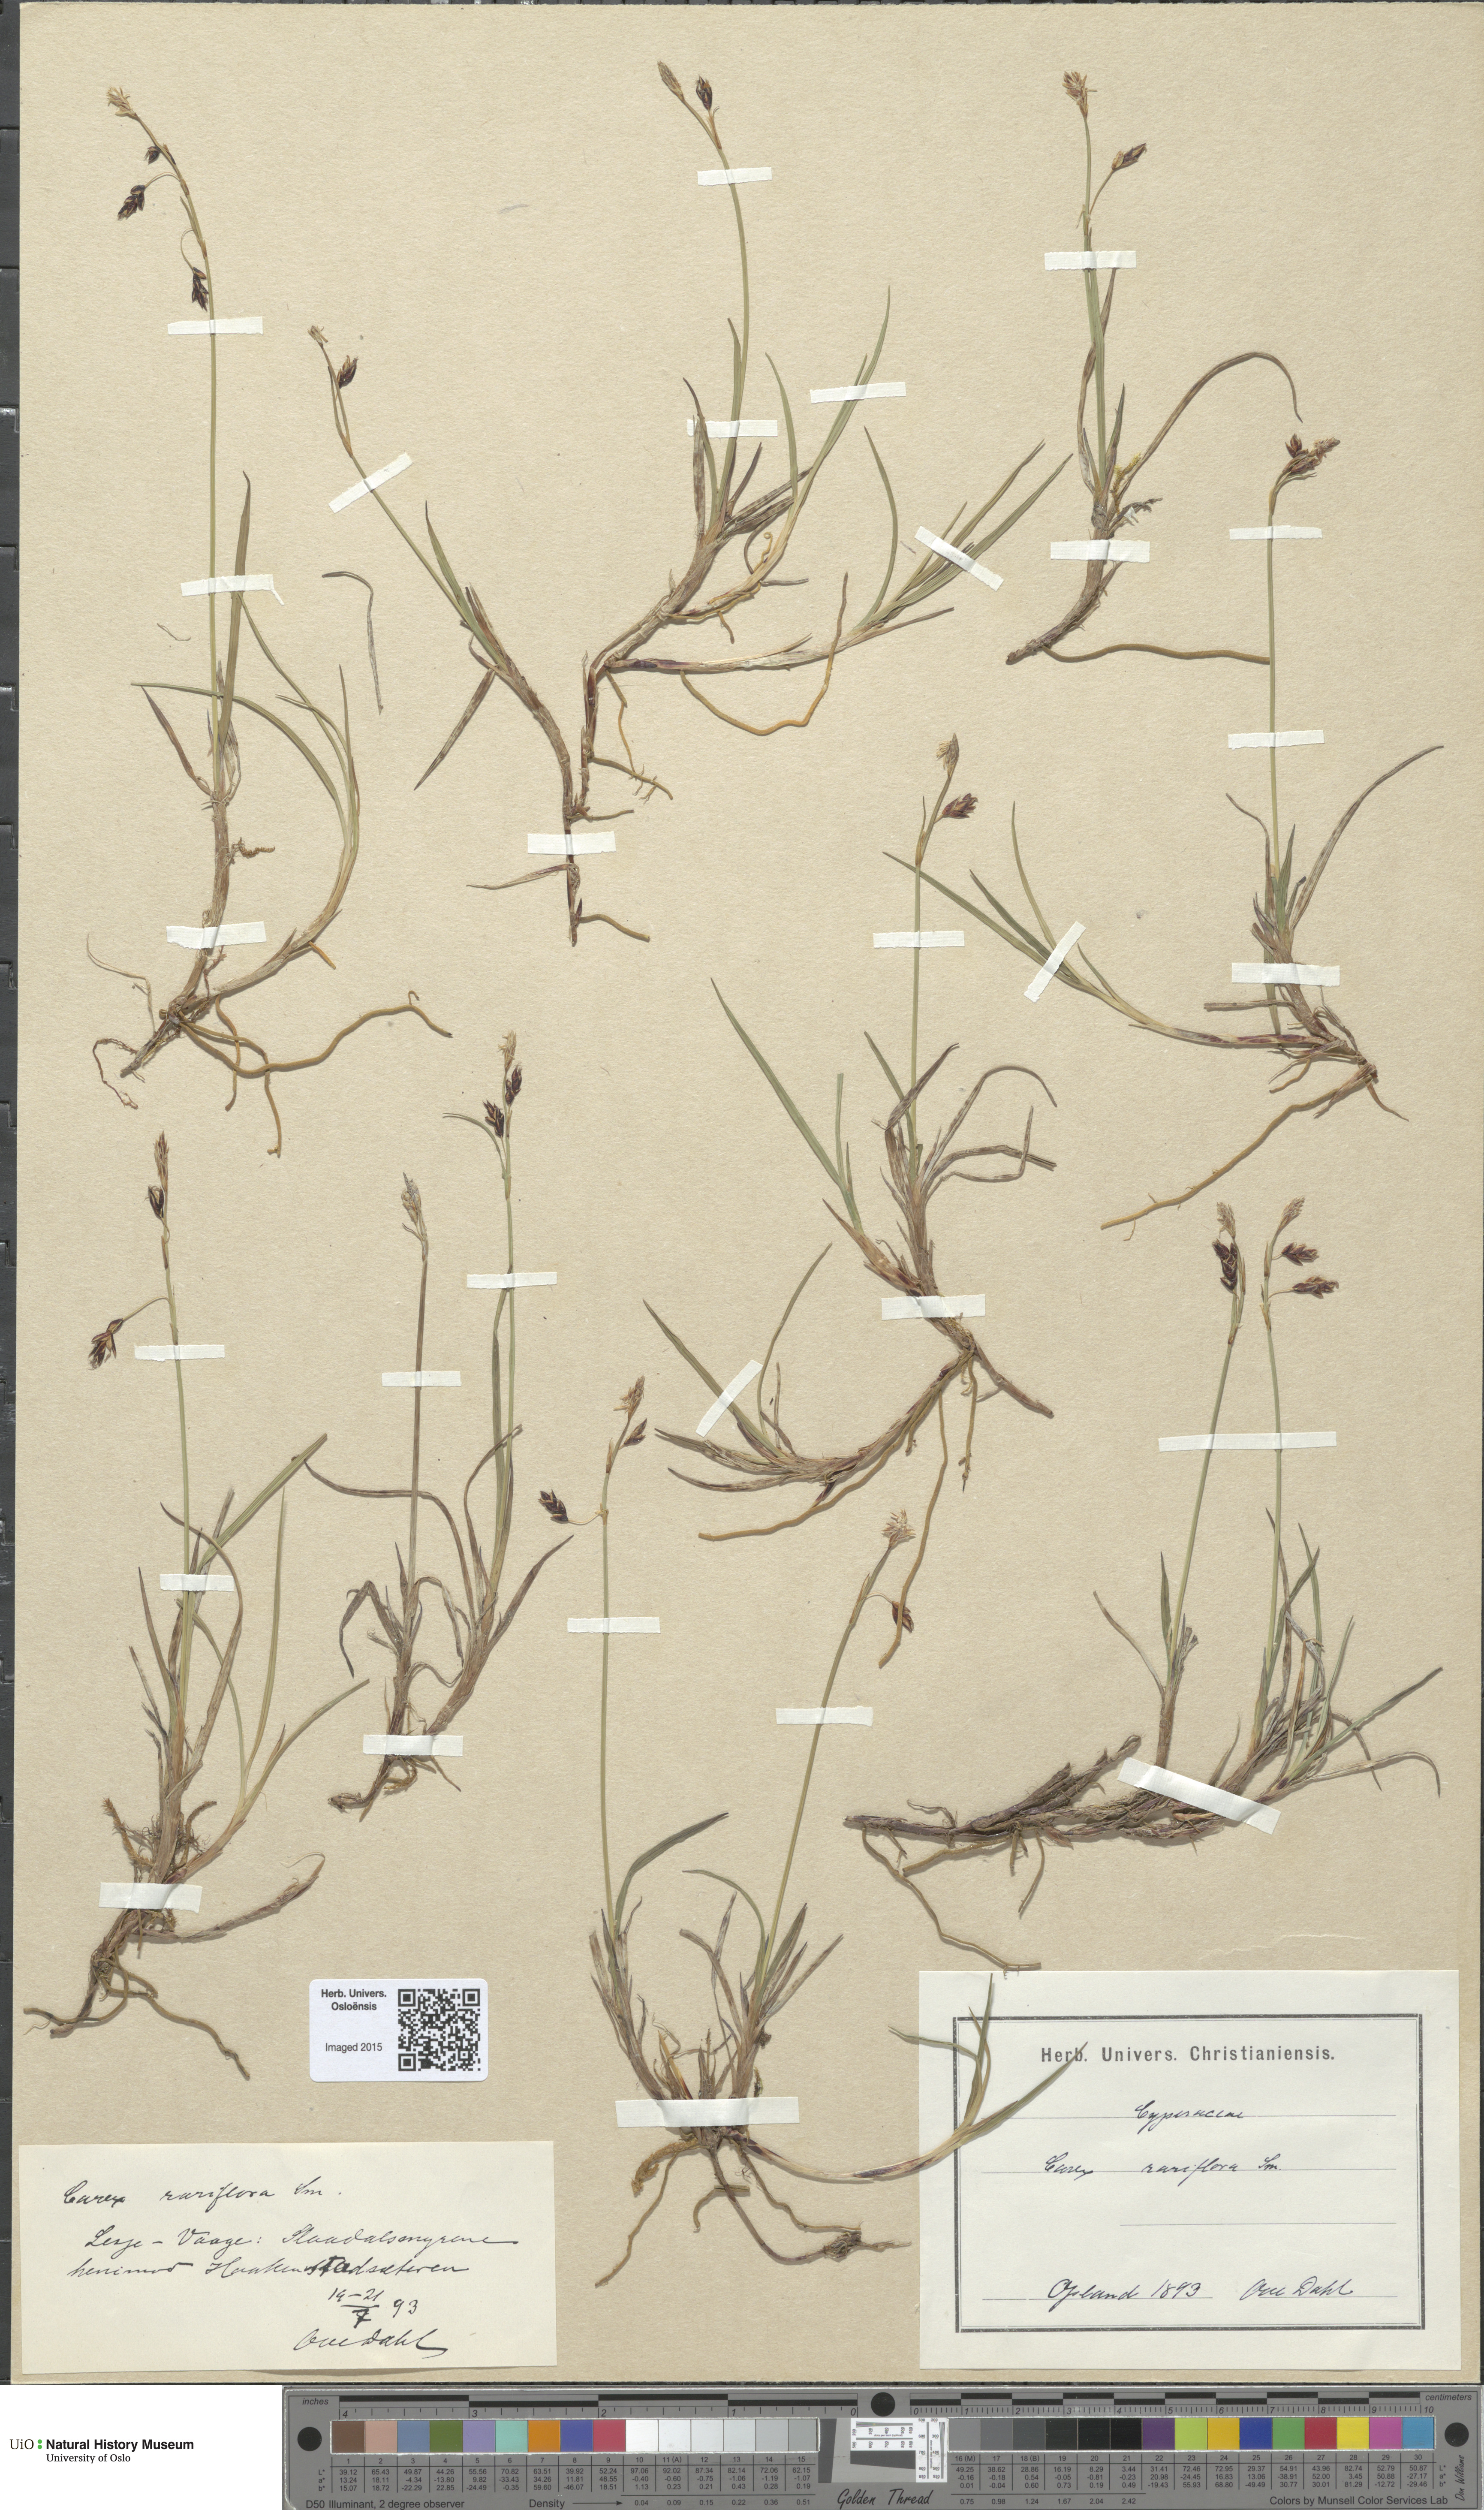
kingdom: Plantae
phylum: Tracheophyta
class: Liliopsida
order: Poales
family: Cyperaceae
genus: Carex
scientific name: Carex rariflora
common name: Loose-flowered alpine sedge
